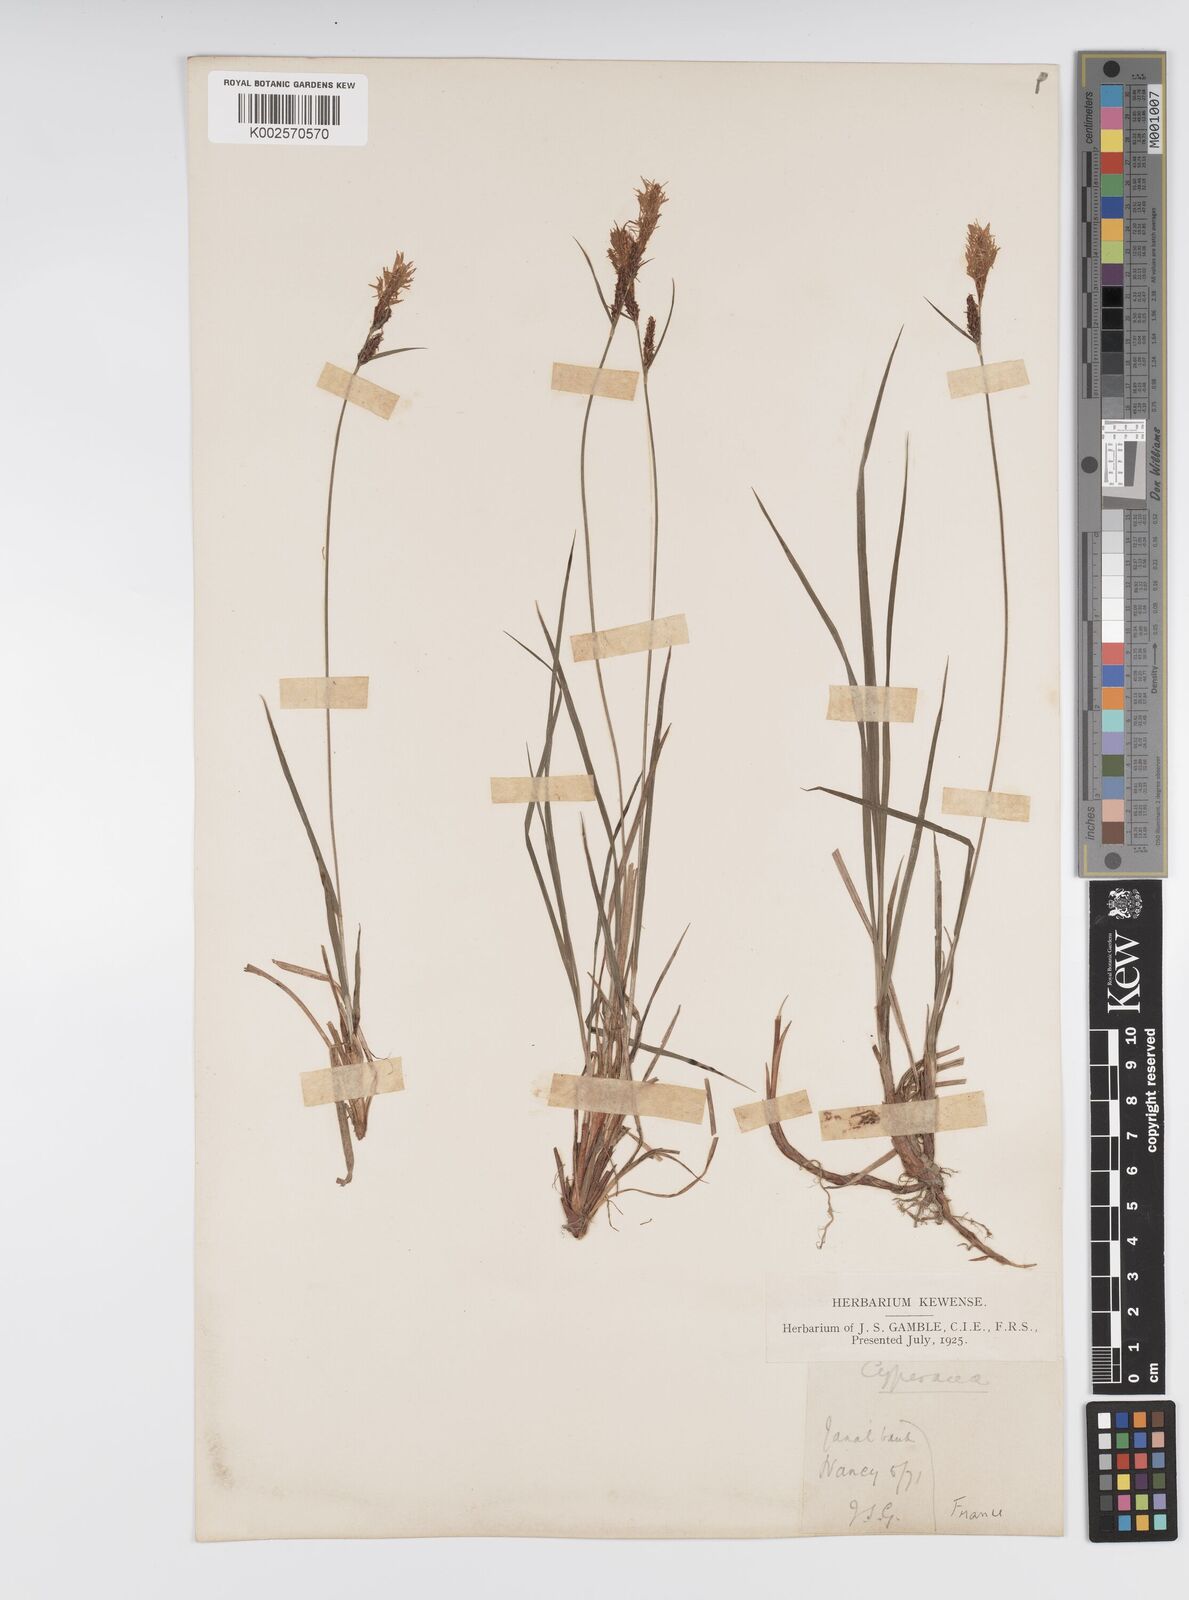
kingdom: Plantae
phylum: Tracheophyta
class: Liliopsida
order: Poales
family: Cyperaceae
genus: Carex
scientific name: Carex montana
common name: Soft-leaved sedge
